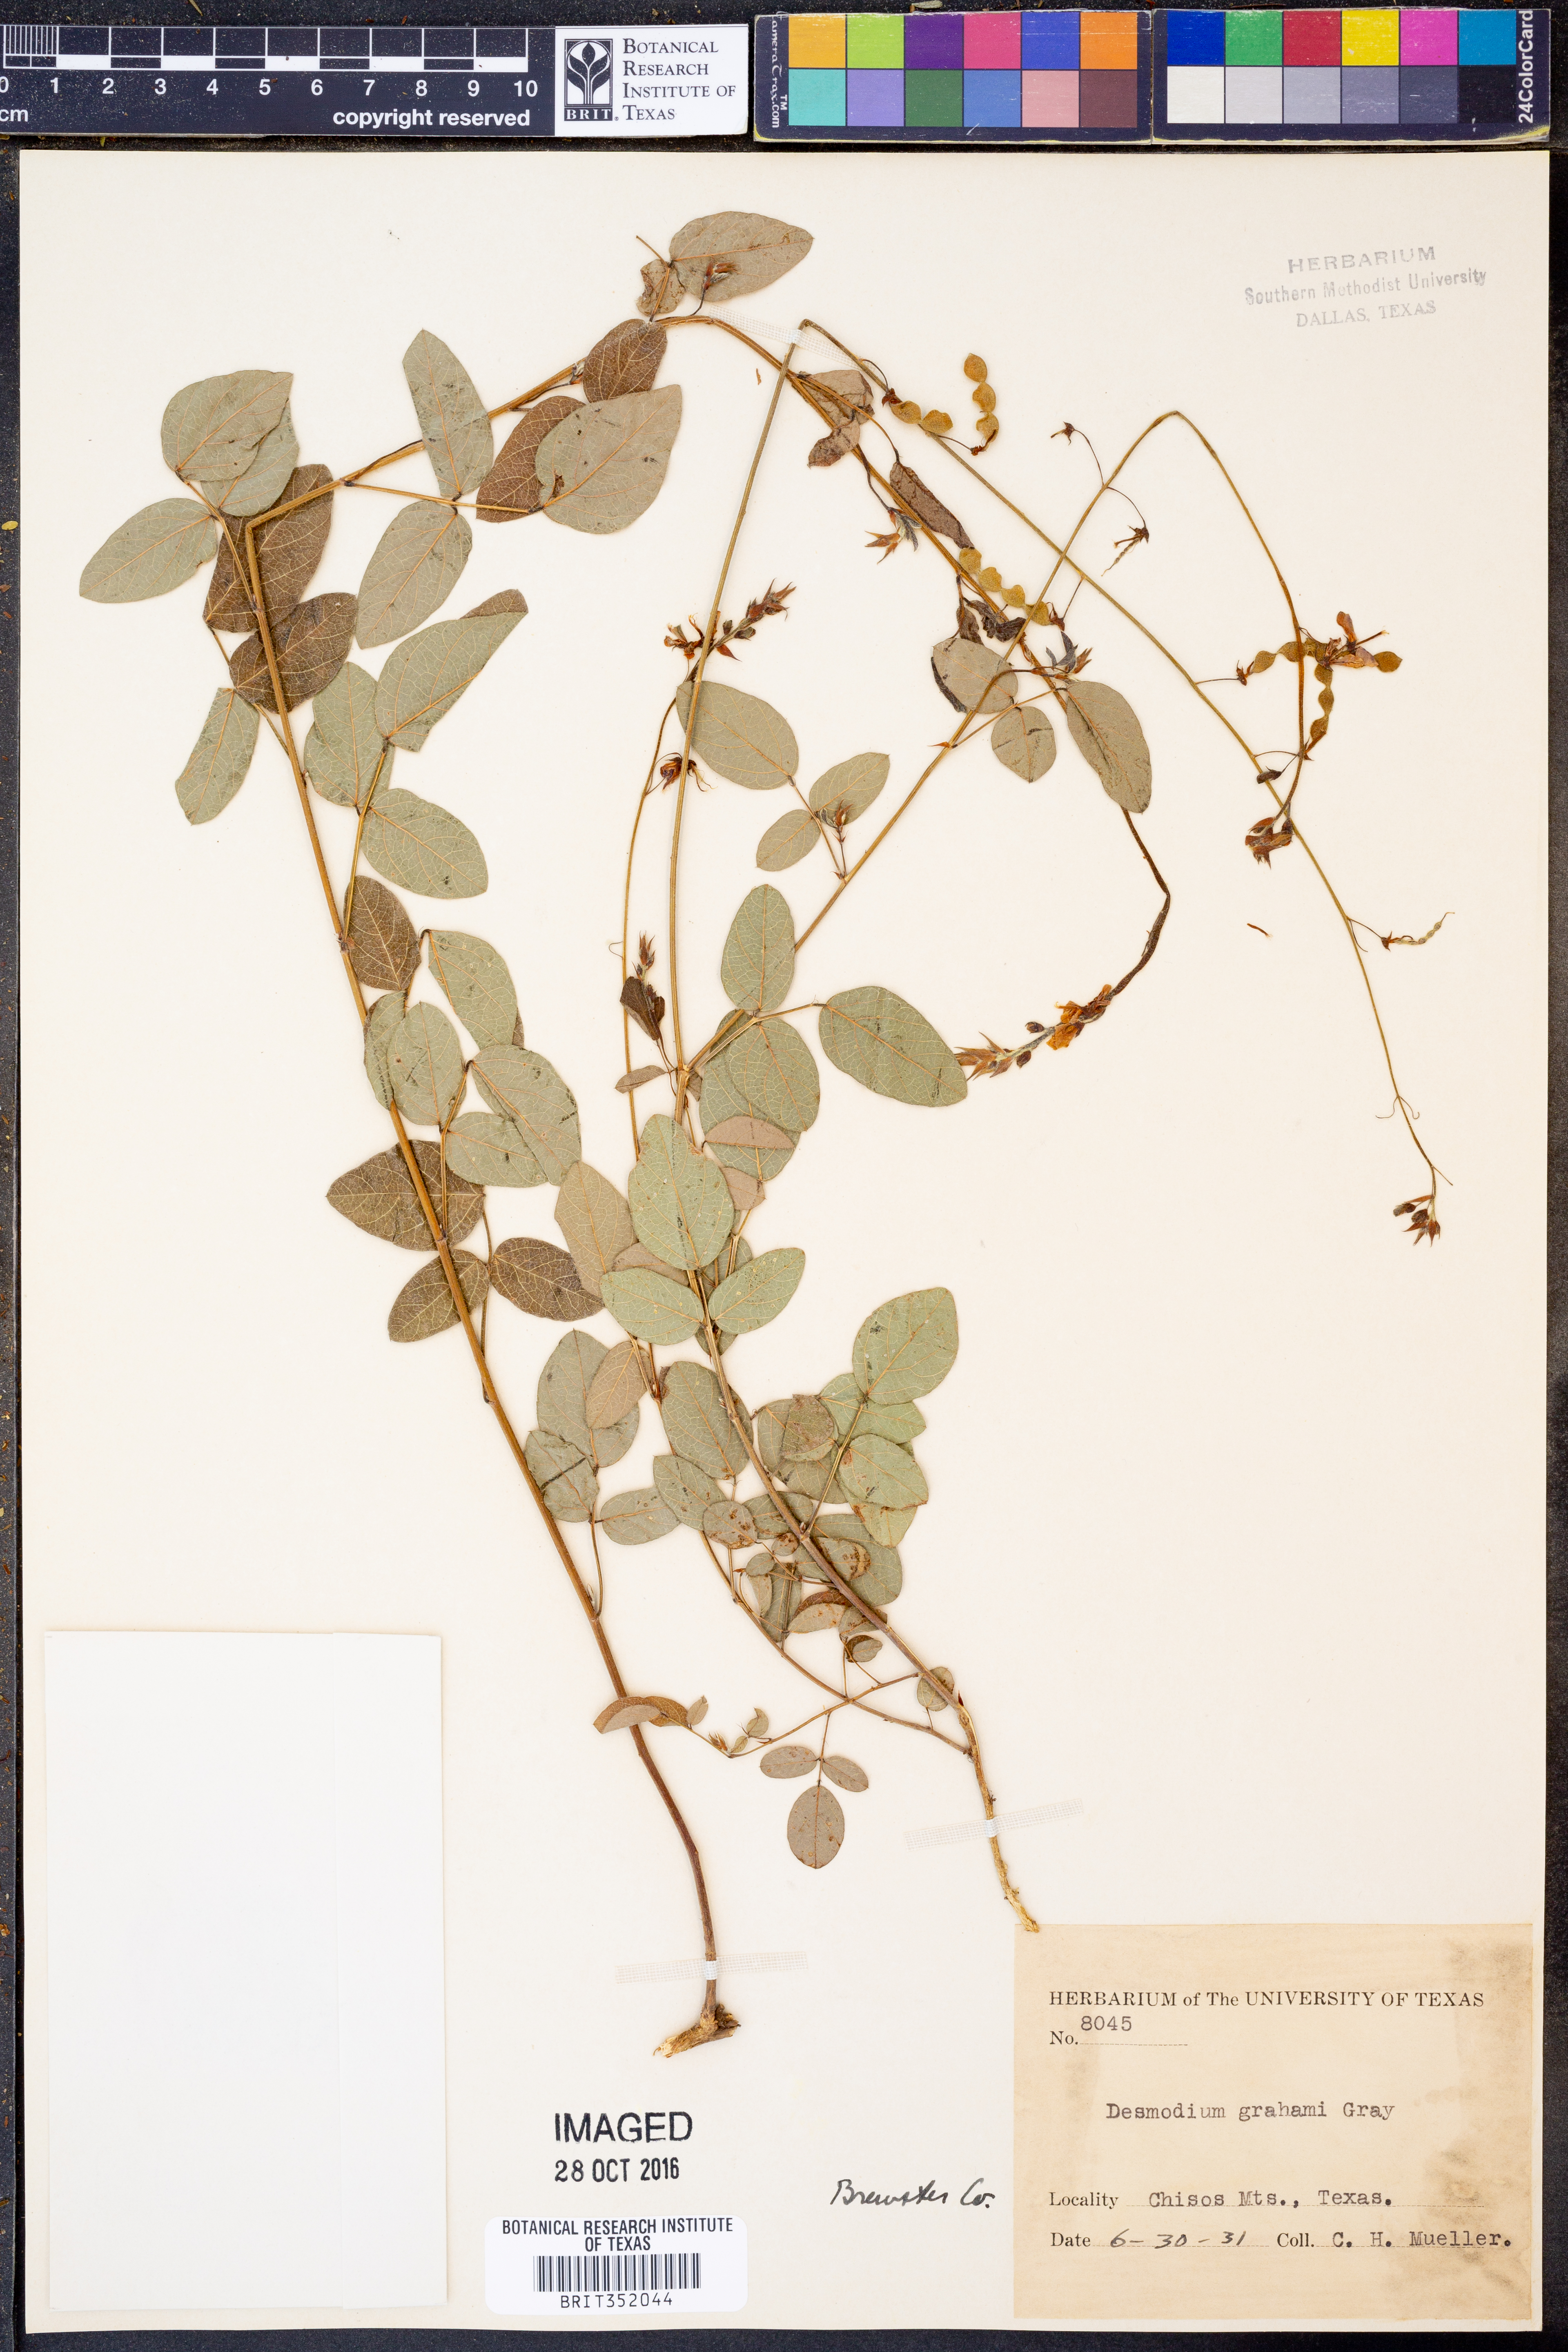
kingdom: Plantae
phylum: Tracheophyta
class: Magnoliopsida
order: Fabales
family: Fabaceae
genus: Desmodium
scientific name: Desmodium grahamii
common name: Graham's tick-trefoil
